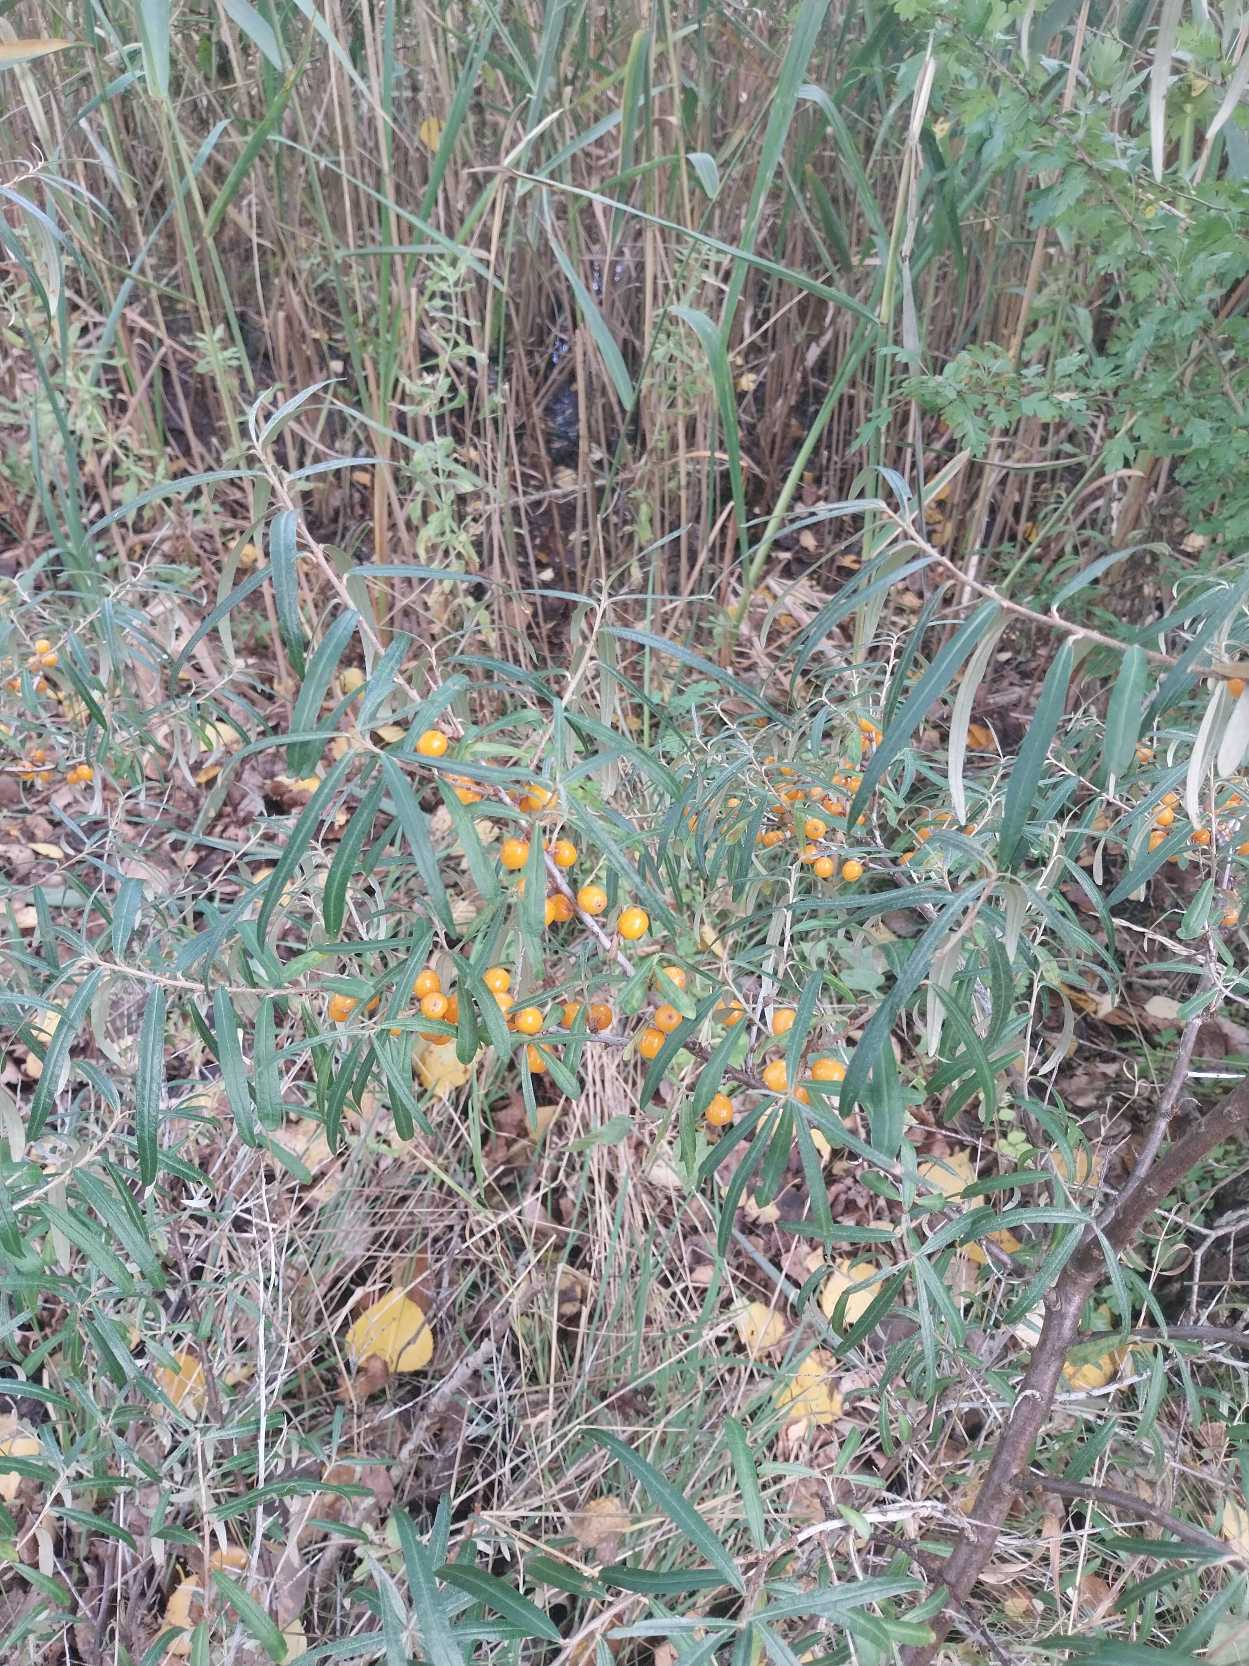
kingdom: Plantae
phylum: Tracheophyta
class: Magnoliopsida
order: Rosales
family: Elaeagnaceae
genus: Hippophae
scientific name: Hippophae rhamnoides
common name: Havtorn
